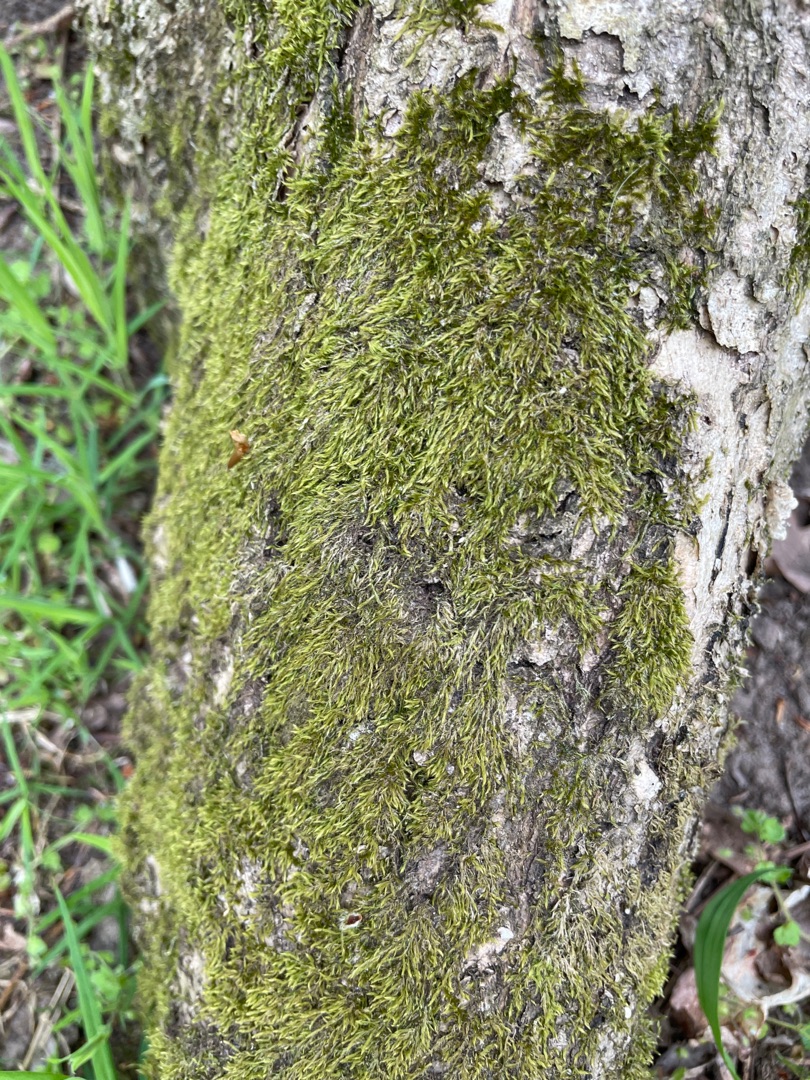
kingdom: Plantae
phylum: Bryophyta
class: Bryopsida
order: Hypnales
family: Hypnaceae
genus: Hypnum
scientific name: Hypnum
